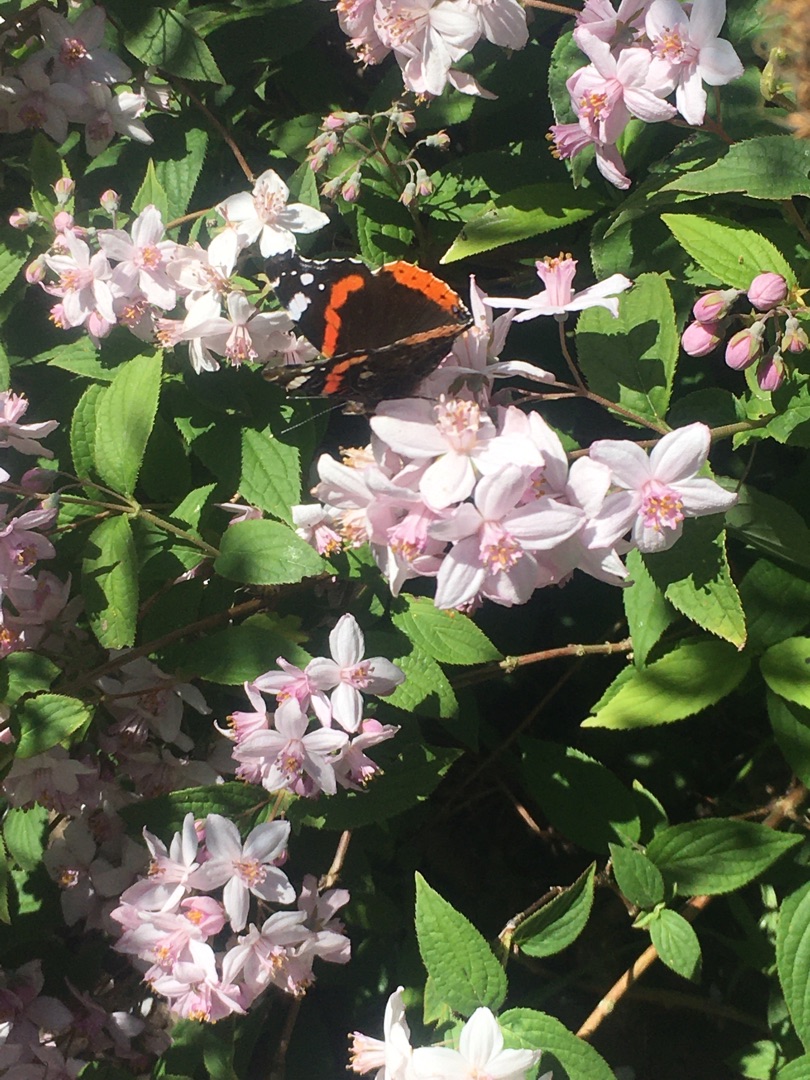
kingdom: Animalia
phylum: Arthropoda
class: Insecta
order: Lepidoptera
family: Nymphalidae
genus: Vanessa
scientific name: Vanessa atalanta
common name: Admiral
